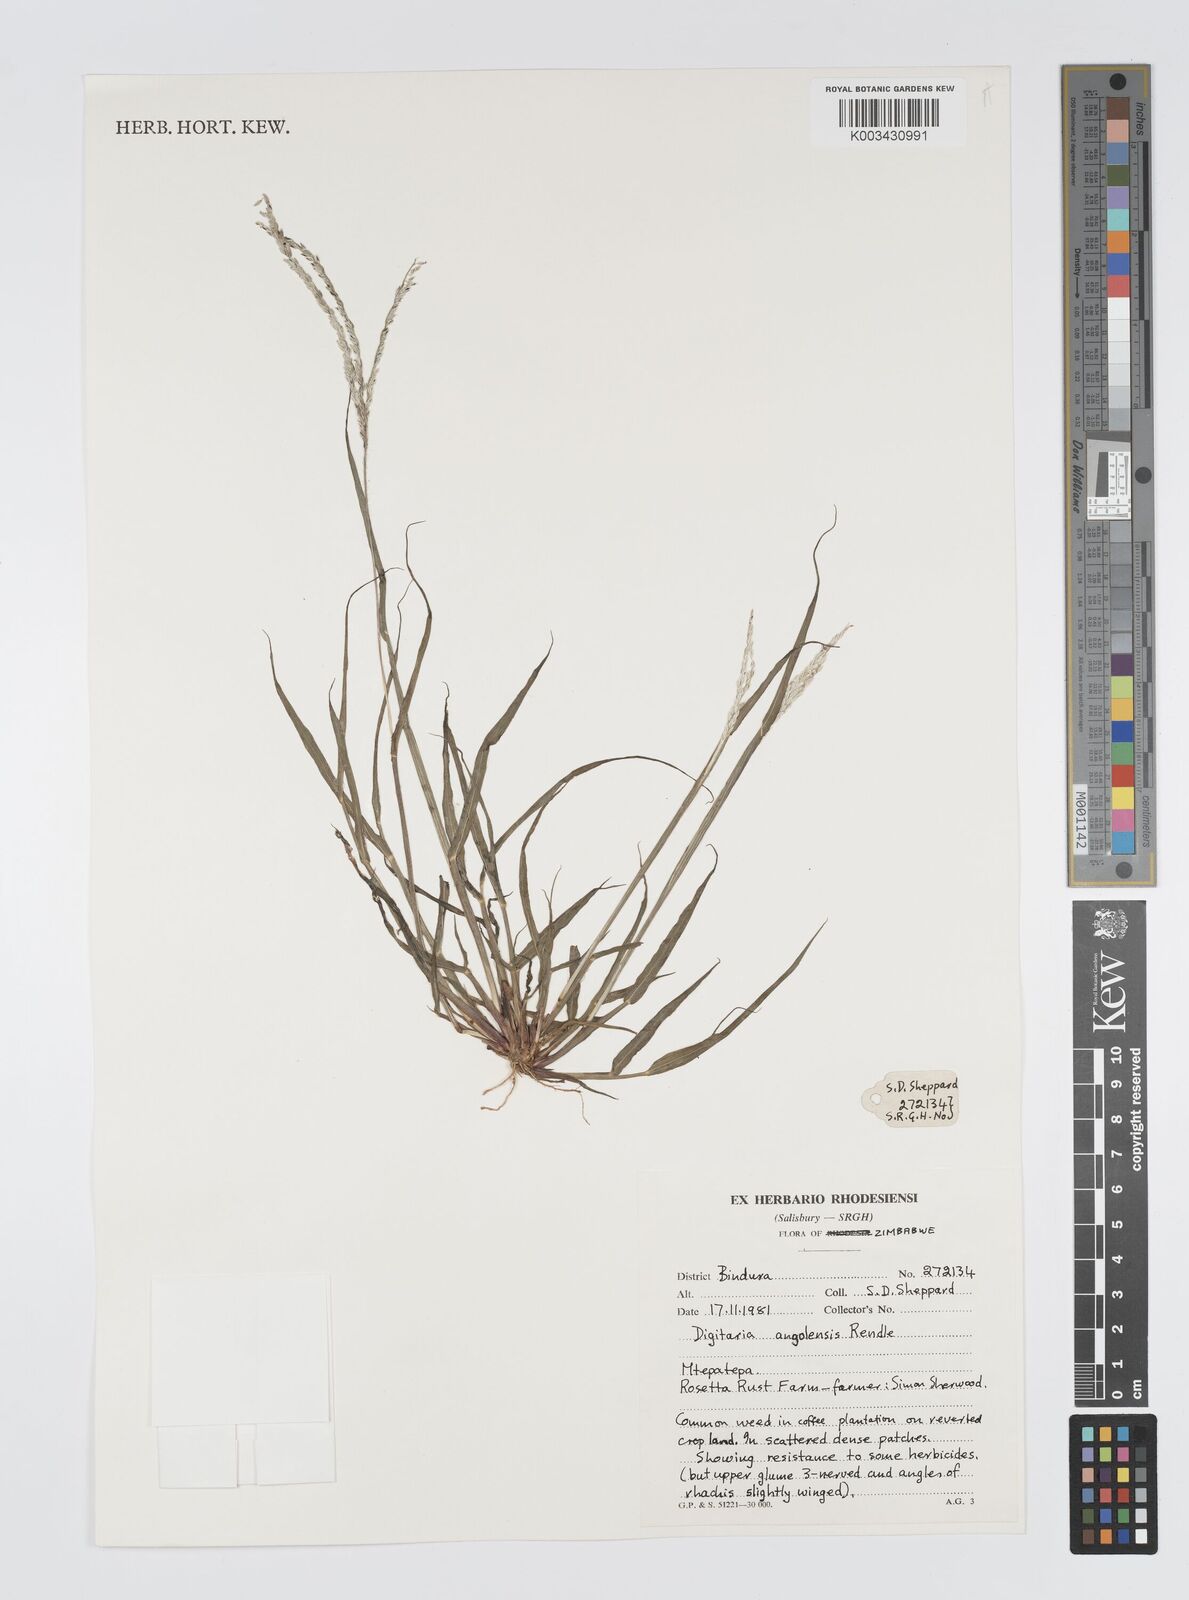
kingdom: Plantae
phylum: Tracheophyta
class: Liliopsida
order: Poales
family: Poaceae
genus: Digitaria
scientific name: Digitaria angolensis
